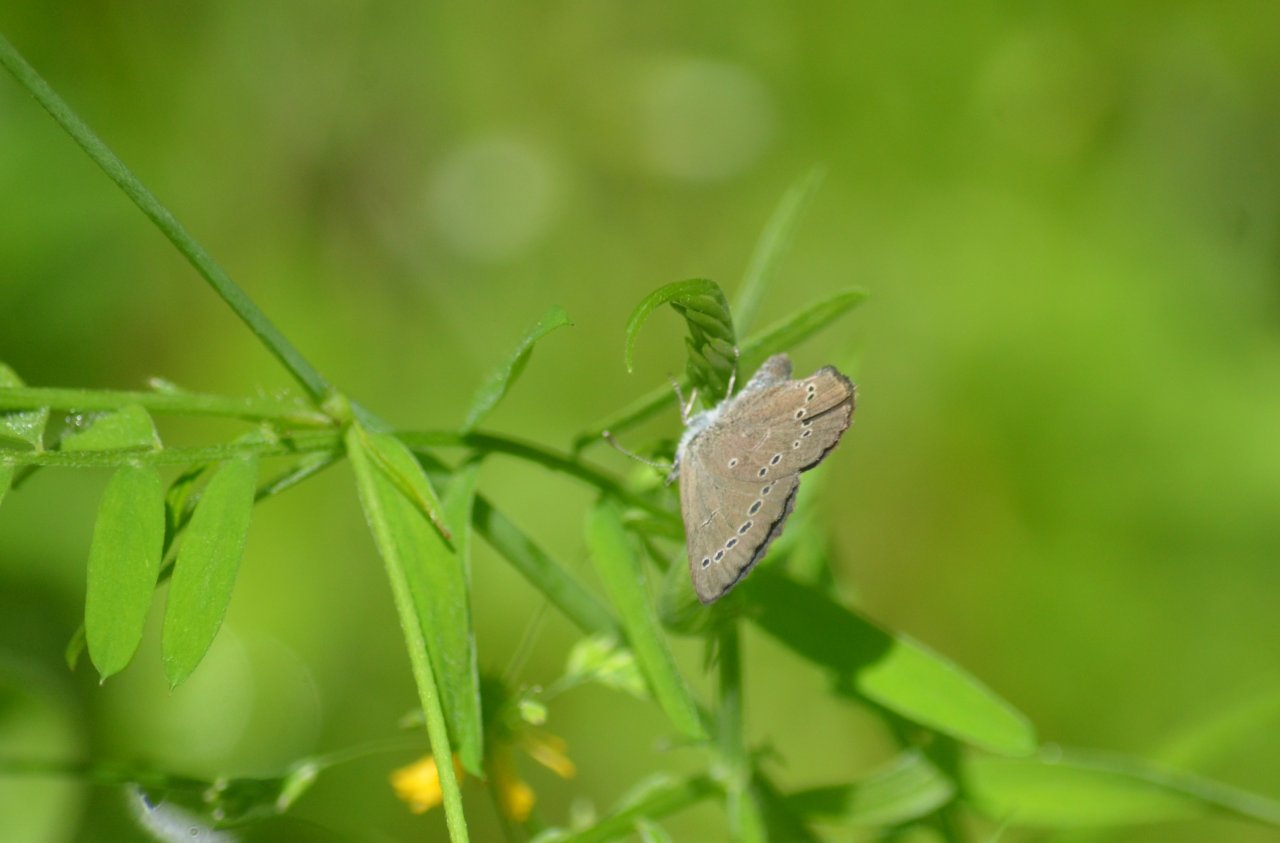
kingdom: Animalia
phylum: Arthropoda
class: Insecta
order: Lepidoptera
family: Lycaenidae
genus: Glaucopsyche
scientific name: Glaucopsyche lygdamus
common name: Silvery Blue
